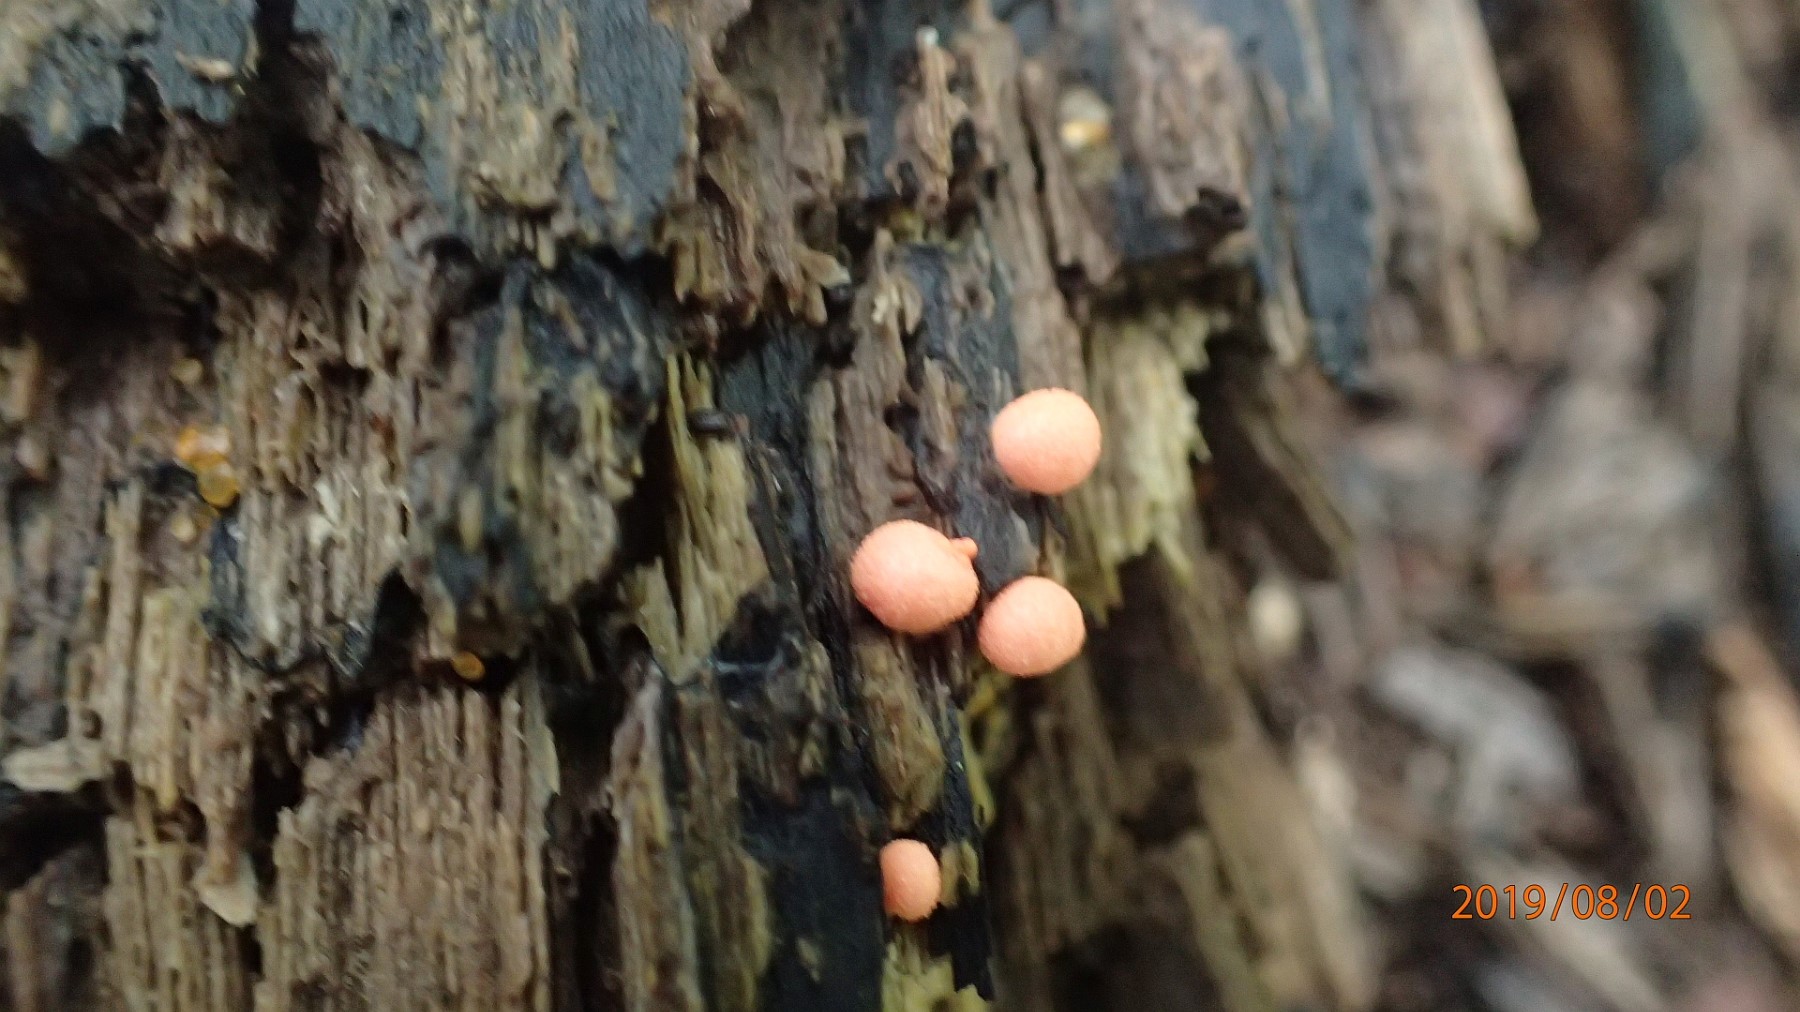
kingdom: Protozoa
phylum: Mycetozoa
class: Myxomycetes
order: Cribrariales
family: Tubiferaceae
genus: Lycogala
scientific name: Lycogala epidendrum
